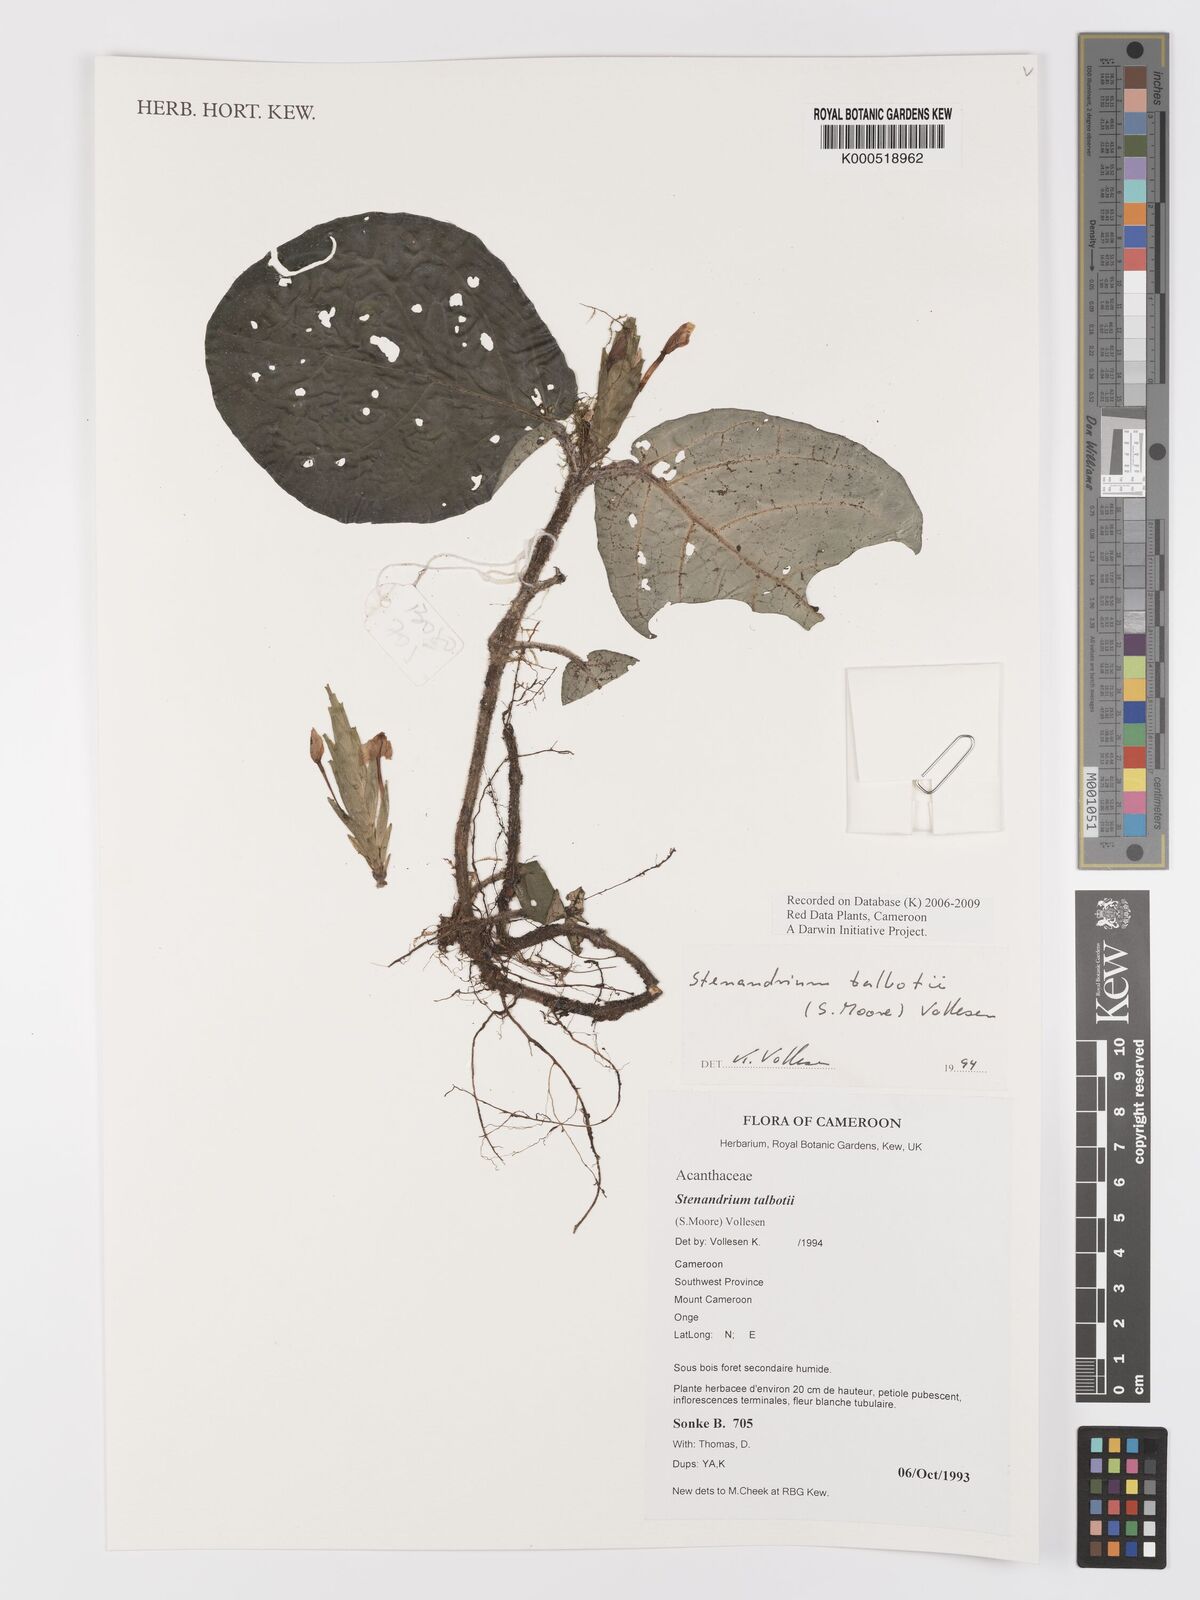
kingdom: Plantae
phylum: Tracheophyta
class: Magnoliopsida
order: Lamiales
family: Acanthaceae
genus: Stenandriopsis
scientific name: Stenandriopsis talbotii
